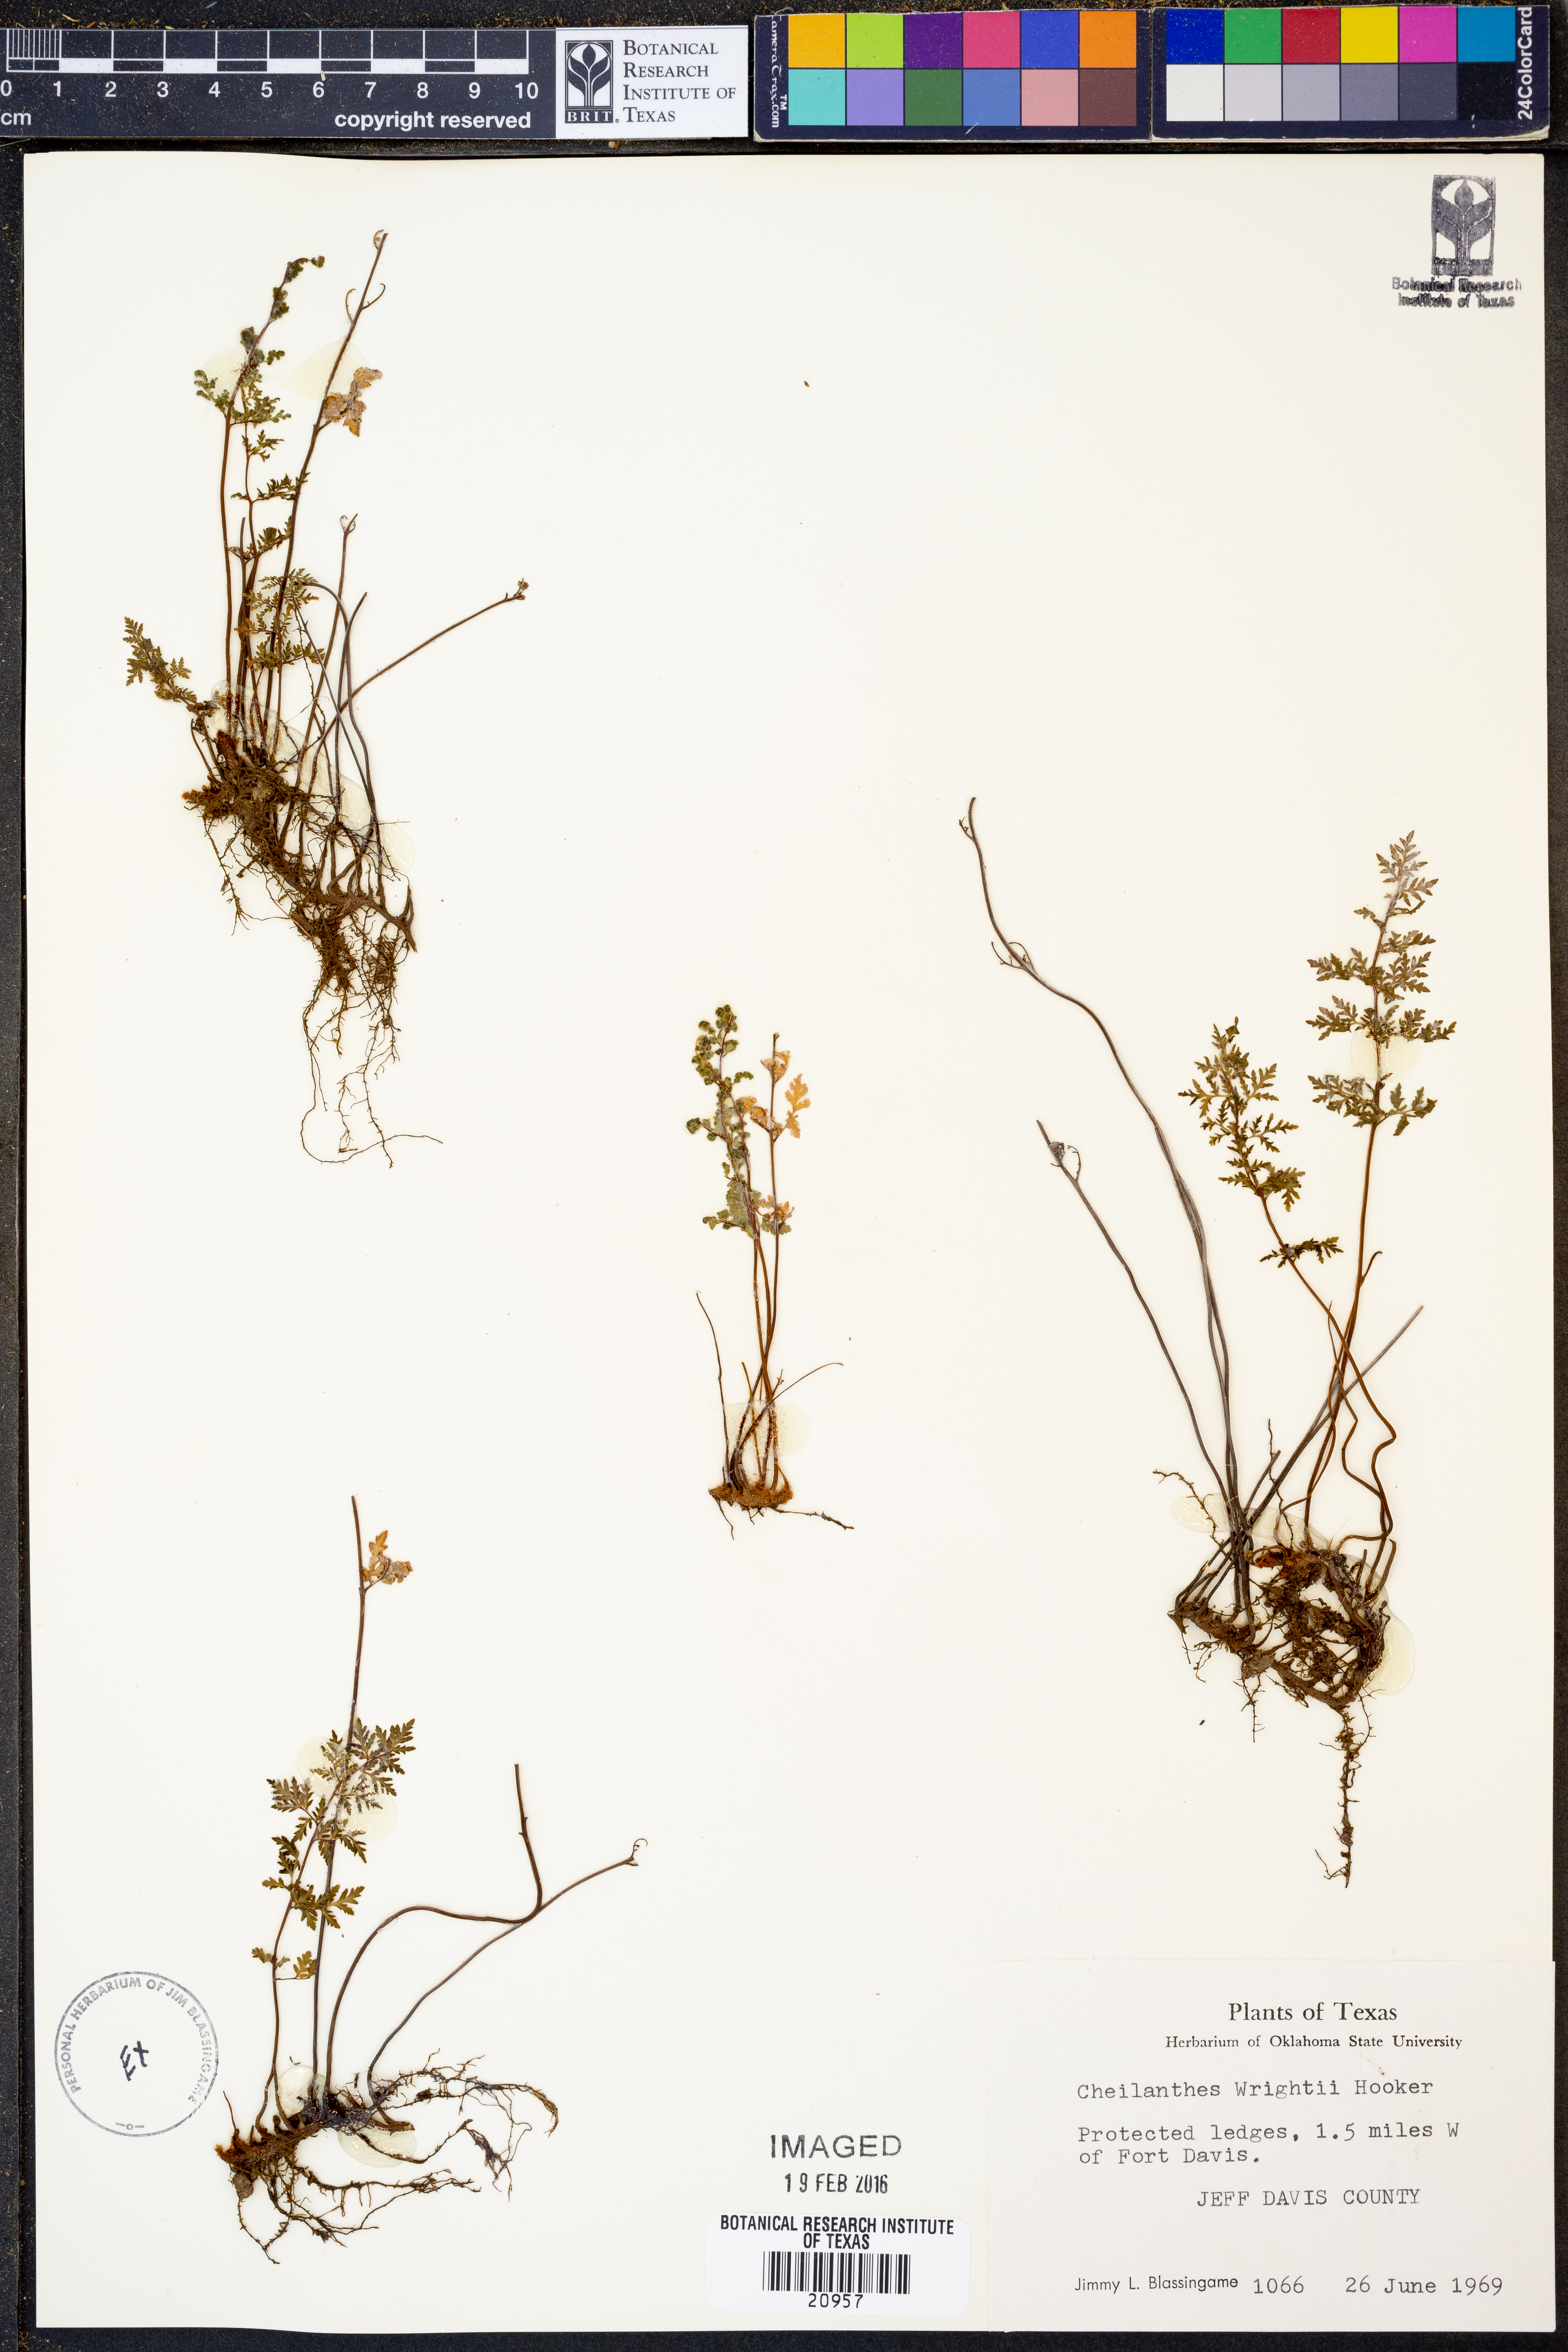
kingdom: Plantae
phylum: Tracheophyta
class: Polypodiopsida
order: Polypodiales
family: Pteridaceae
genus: Myriopteris
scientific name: Myriopteris wrightii
